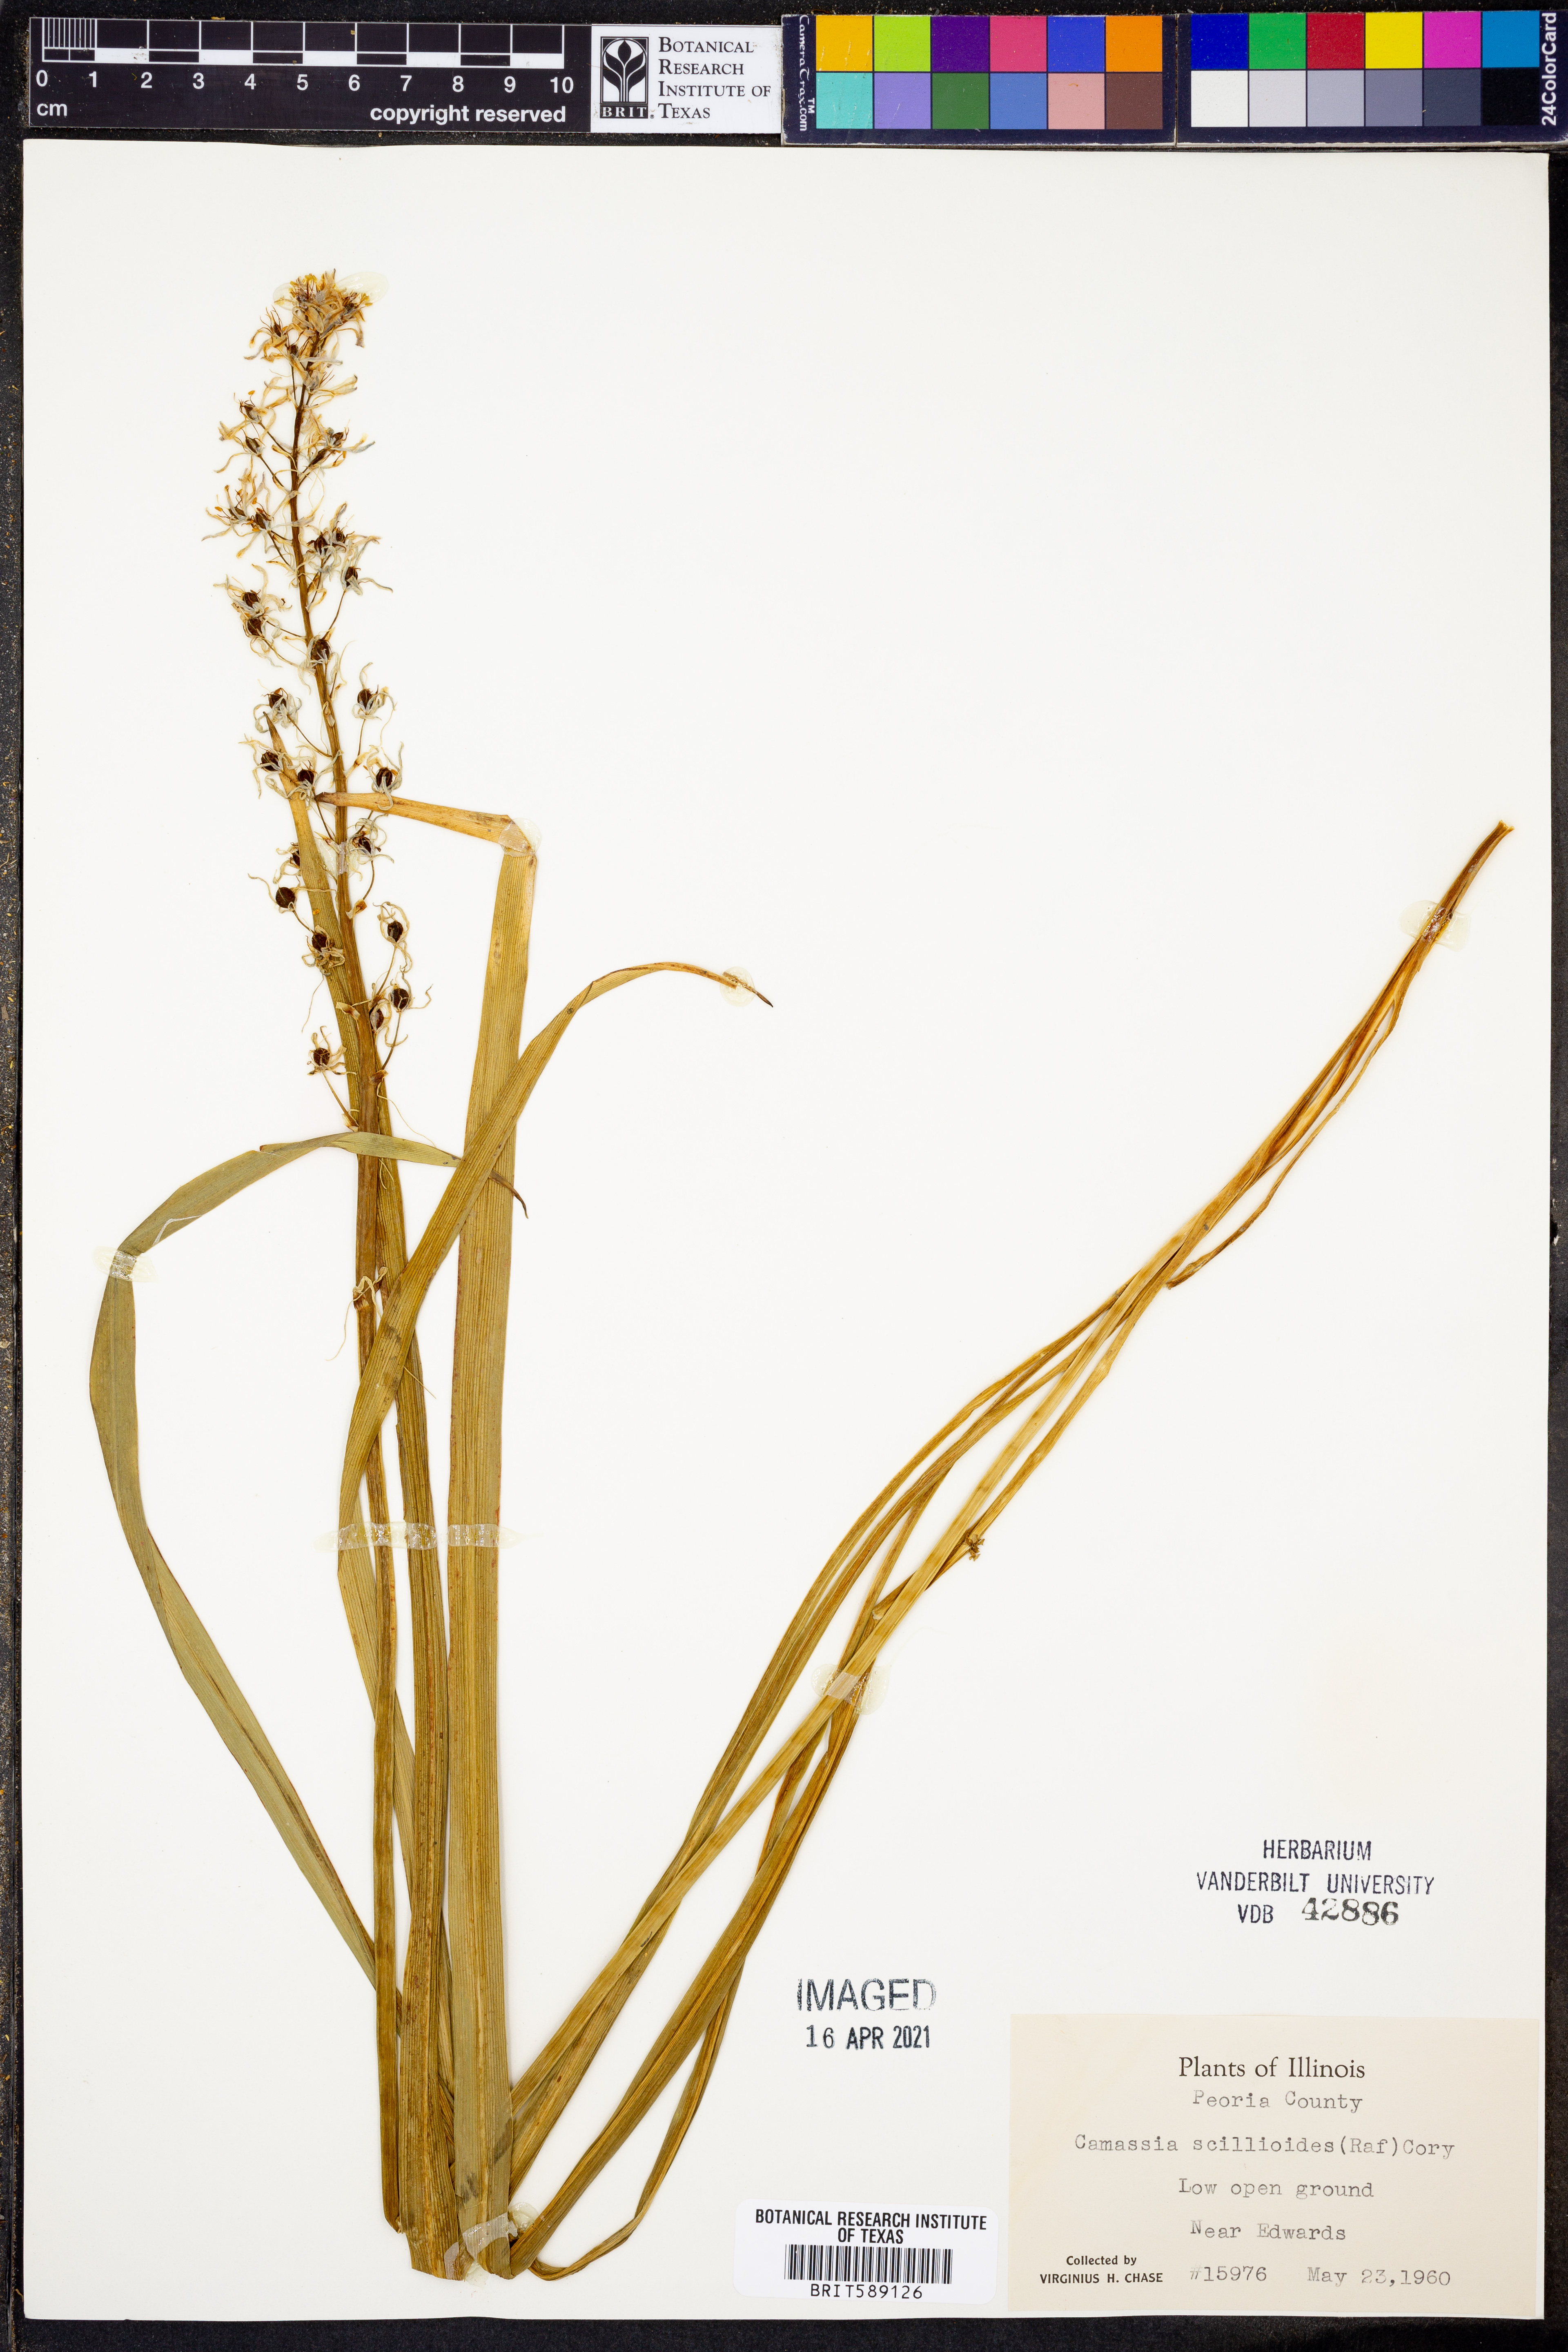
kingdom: Plantae
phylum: Tracheophyta
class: Liliopsida
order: Asparagales
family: Asparagaceae
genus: Camassia
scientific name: Camassia scilloides
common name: Wild hyacinth
